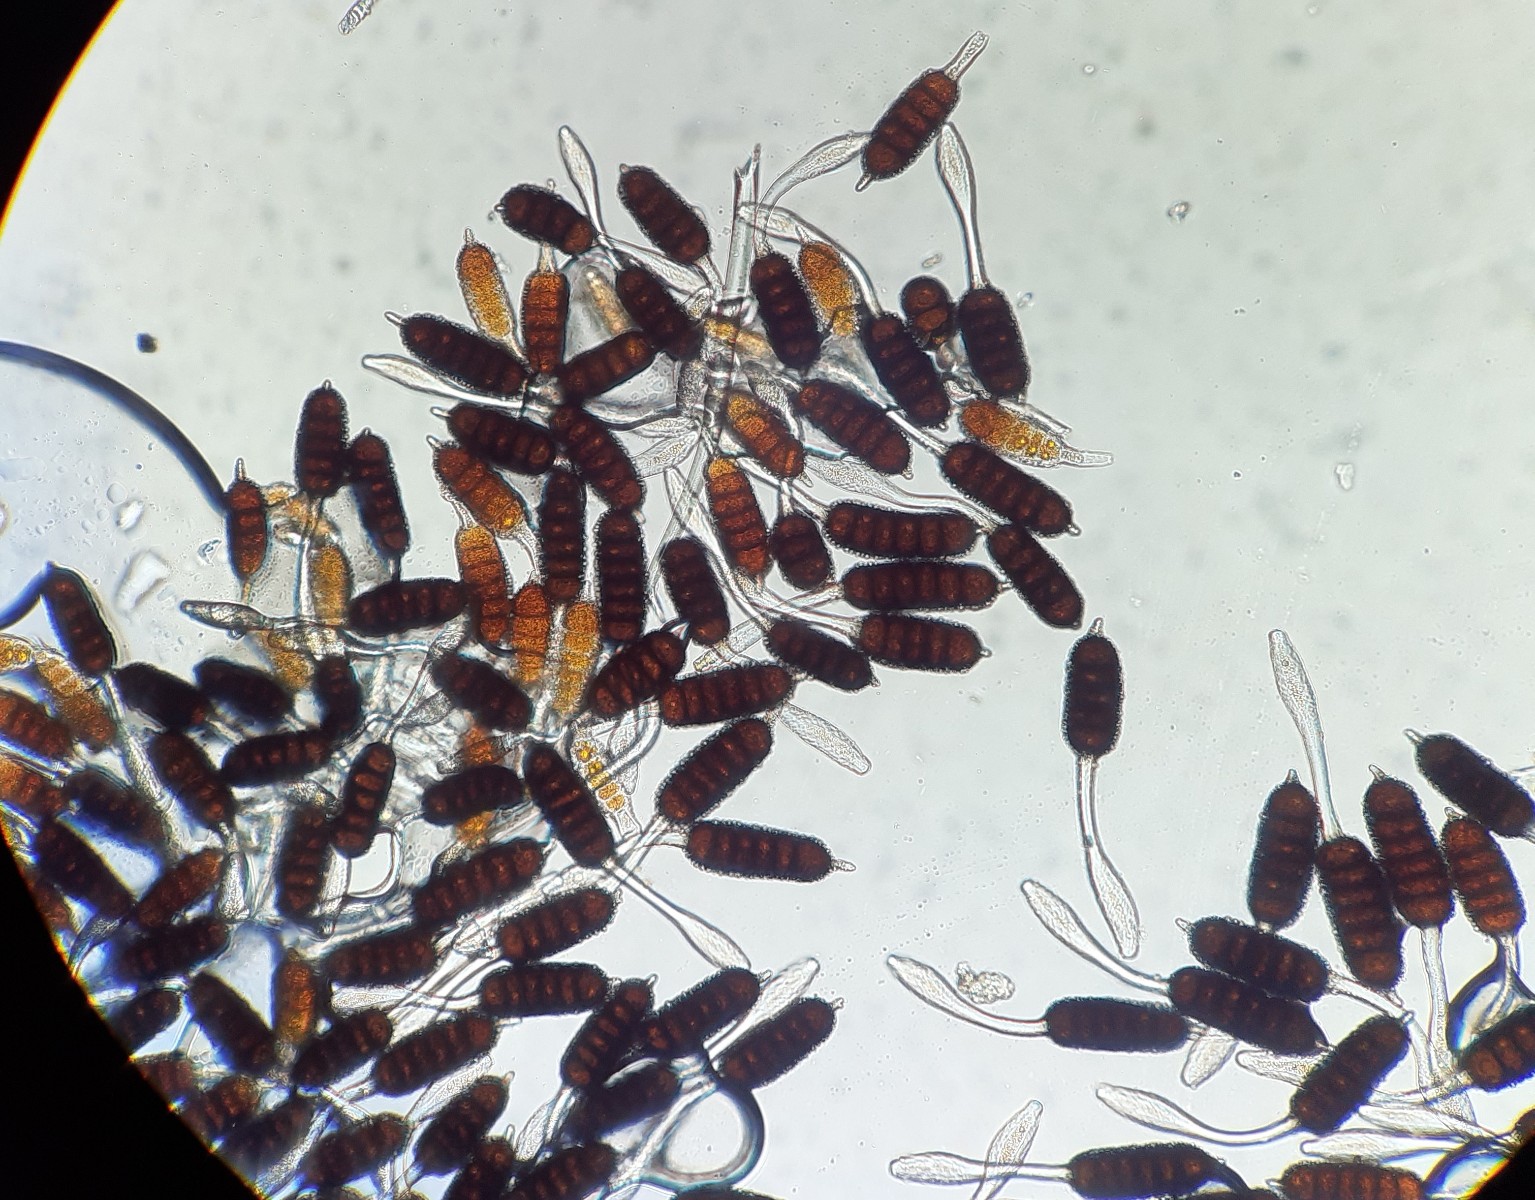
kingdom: Fungi
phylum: Basidiomycota
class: Pucciniomycetes
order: Pucciniales
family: Phragmidiaceae
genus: Phragmidium
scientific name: Phragmidium bulbosum
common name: brombær-flercellerust
